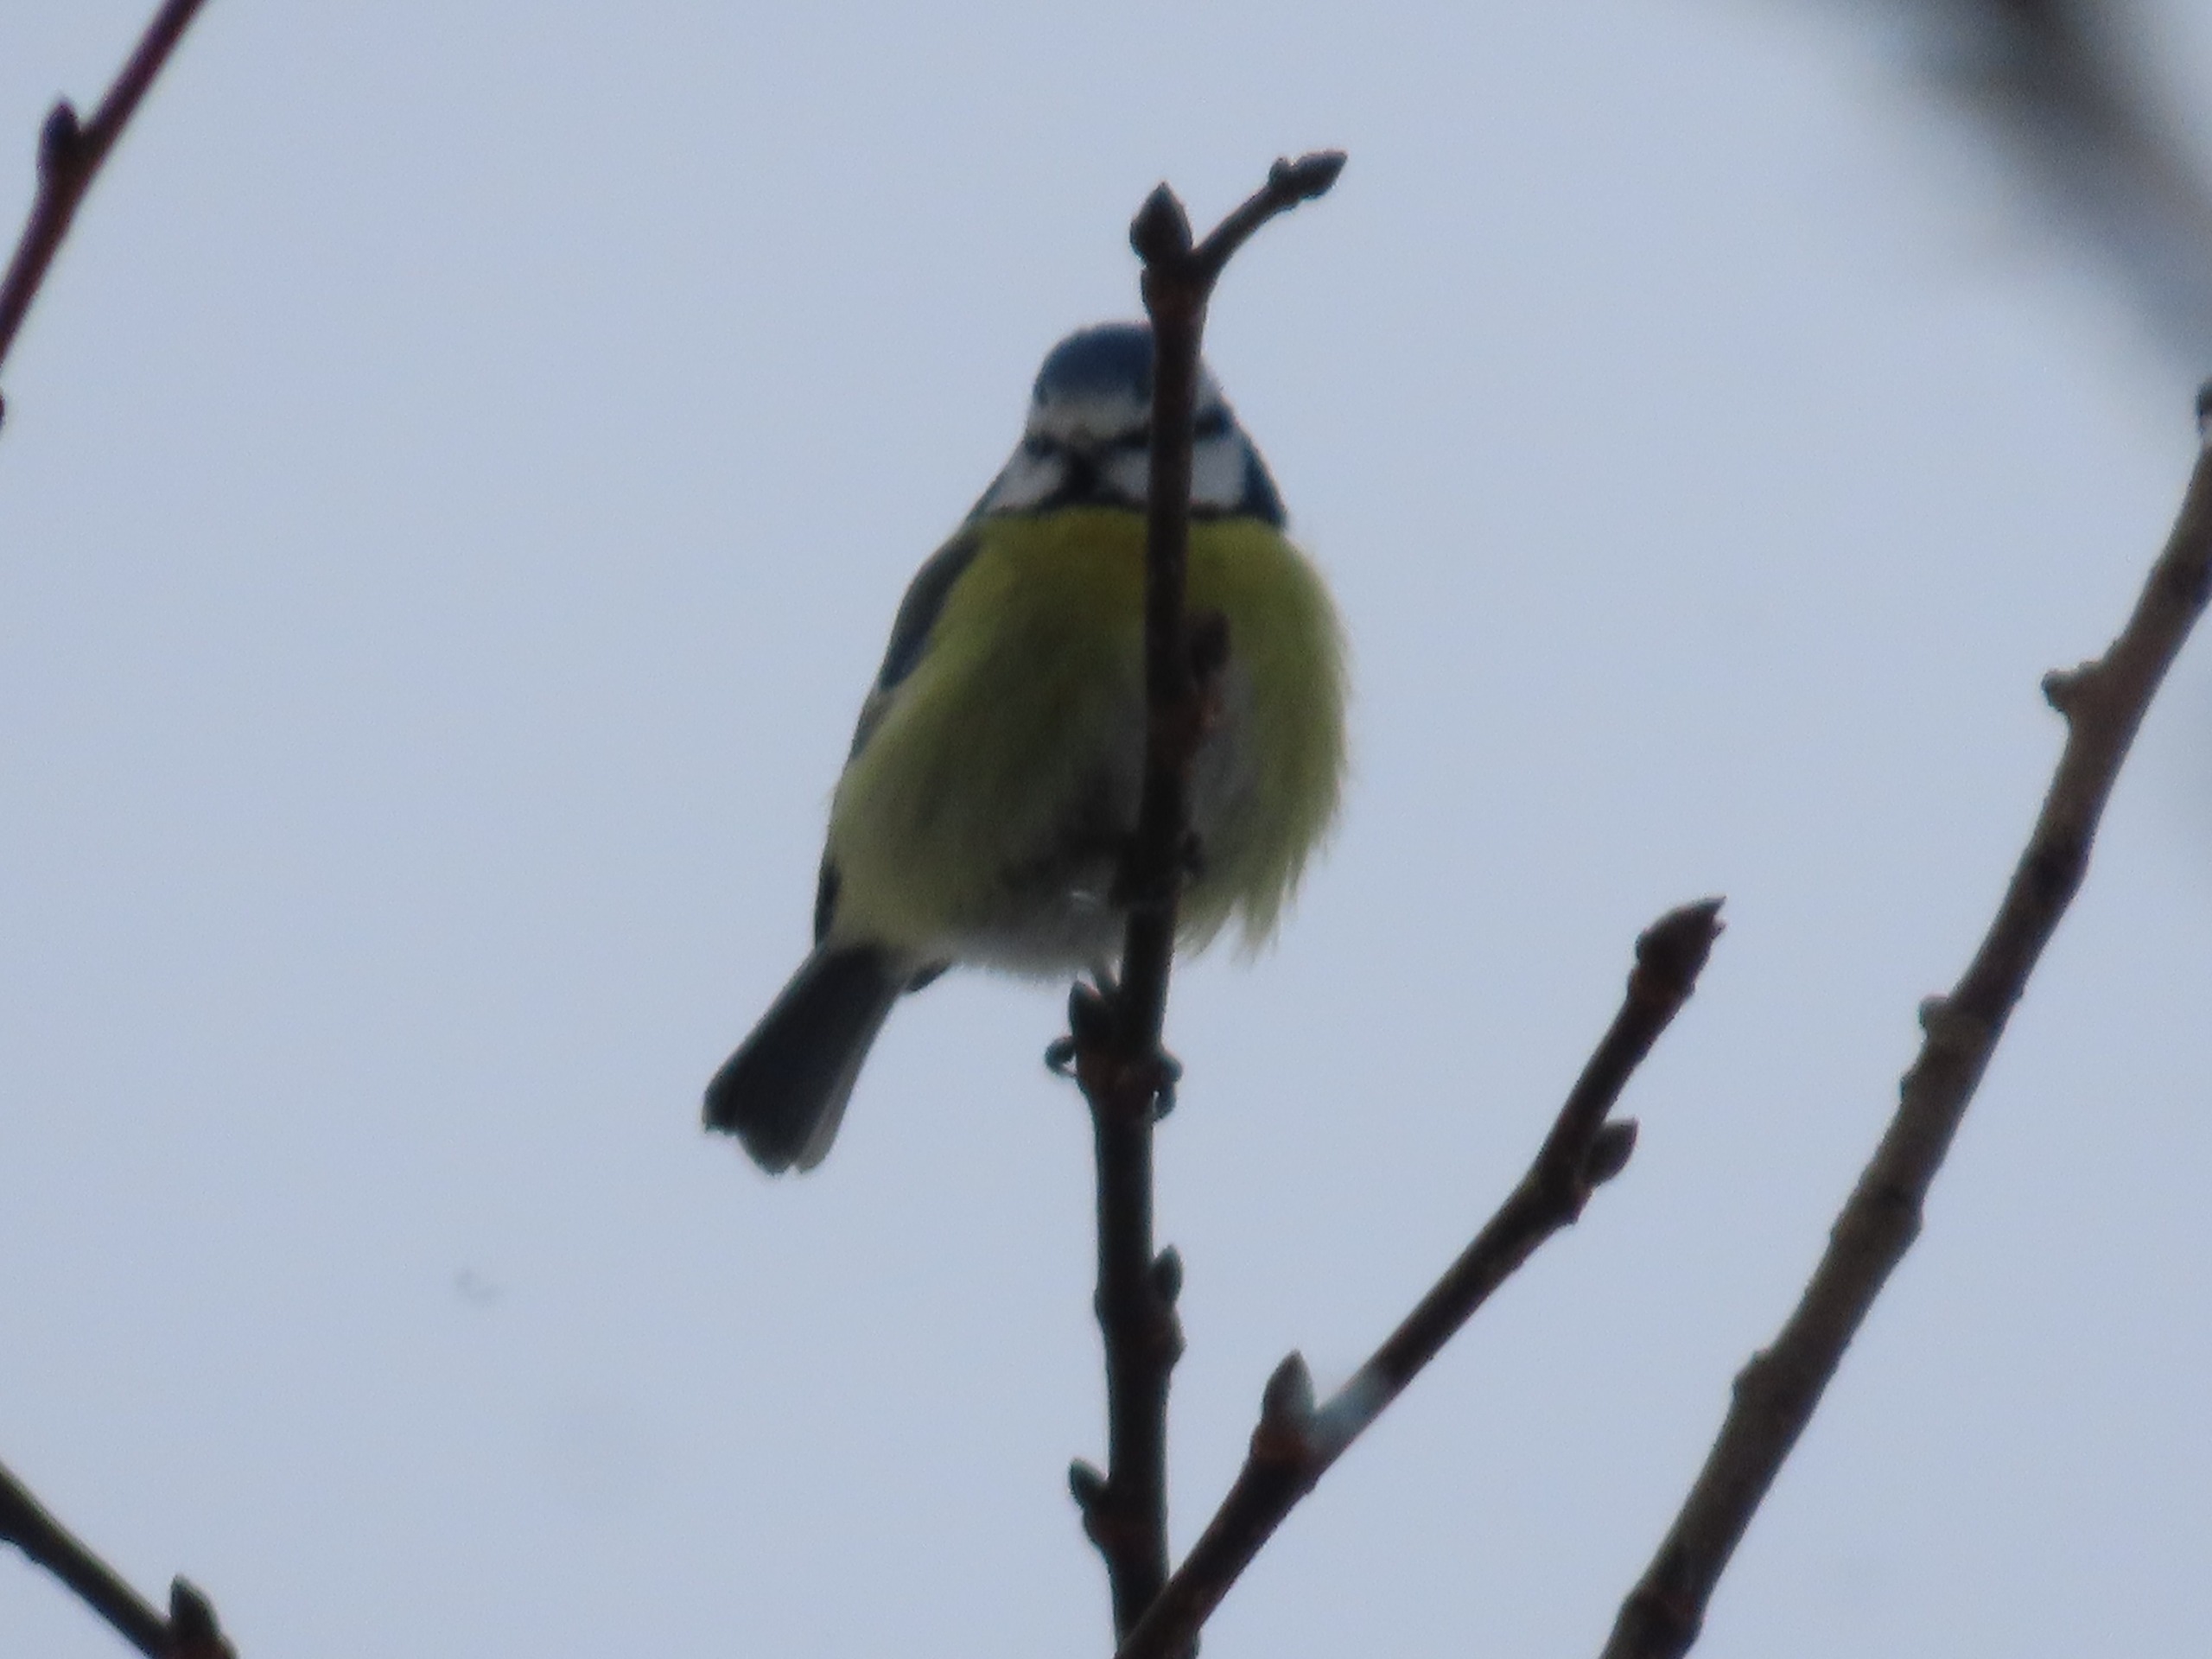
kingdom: Animalia
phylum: Chordata
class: Aves
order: Passeriformes
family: Paridae
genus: Cyanistes
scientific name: Cyanistes caeruleus
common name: Blåmejse
